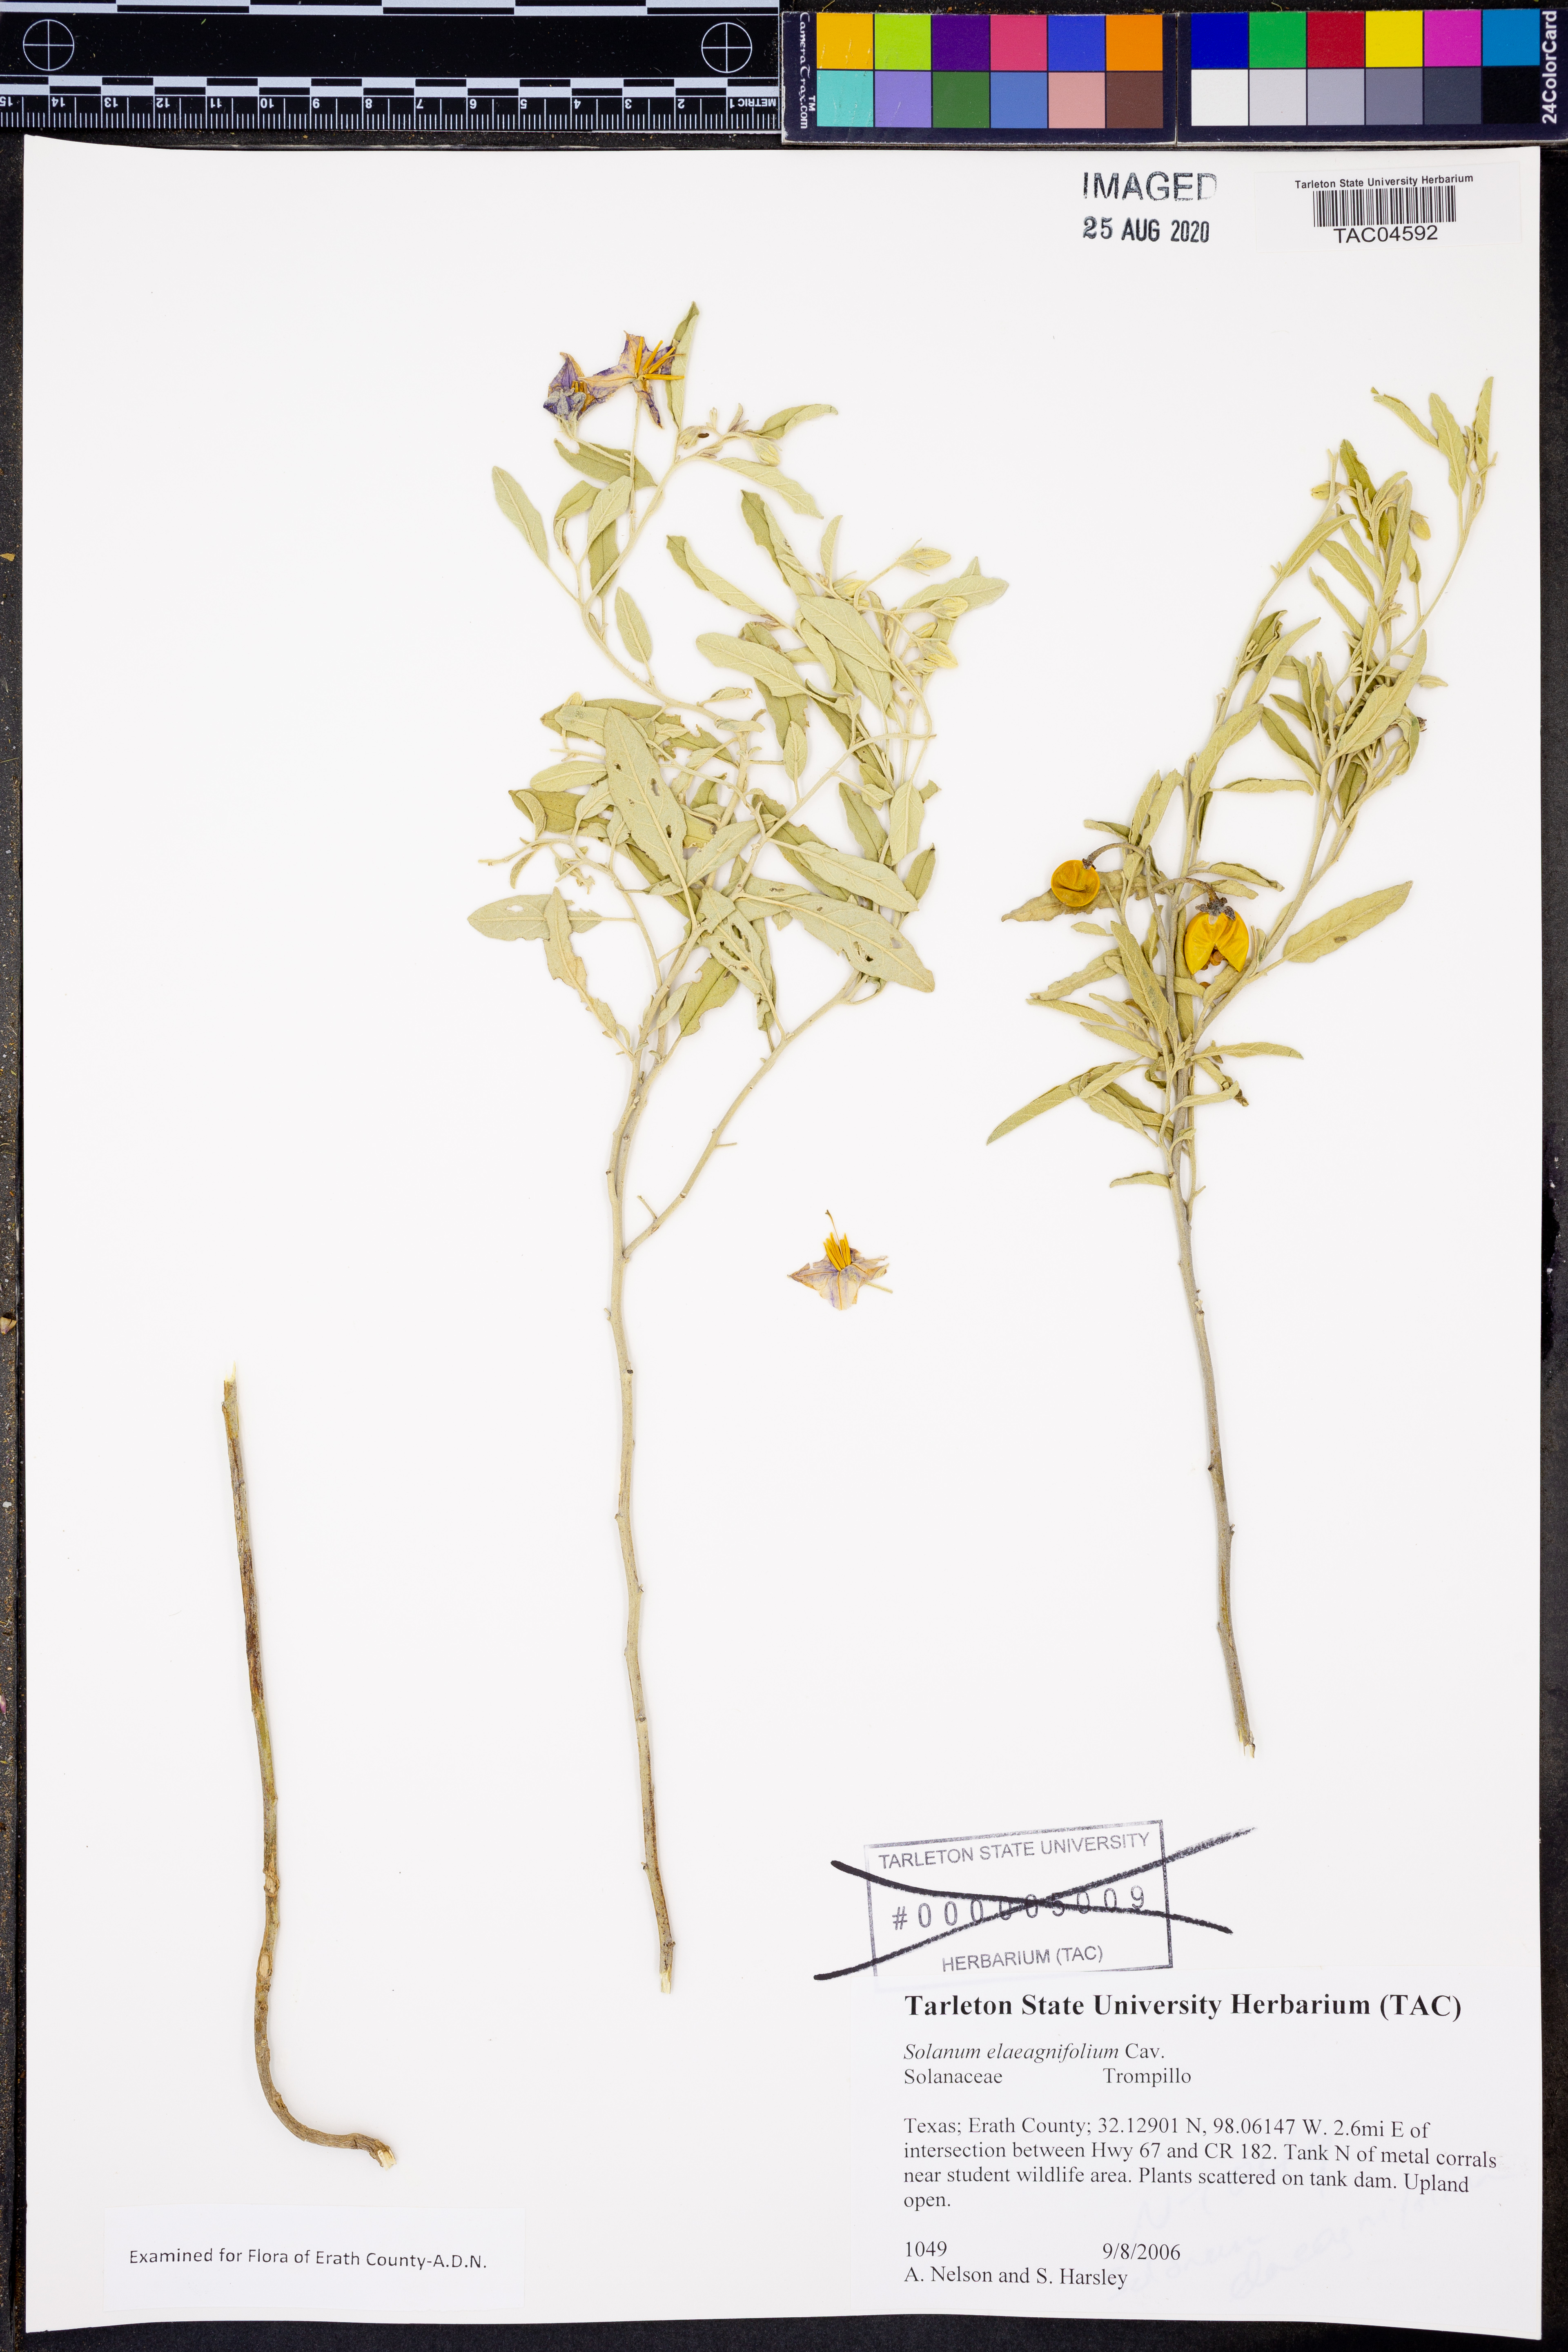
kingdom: Plantae
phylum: Tracheophyta
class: Magnoliopsida
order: Solanales
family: Solanaceae
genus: Solanum
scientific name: Solanum elaeagnifolium
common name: Silverleaf nightshade
